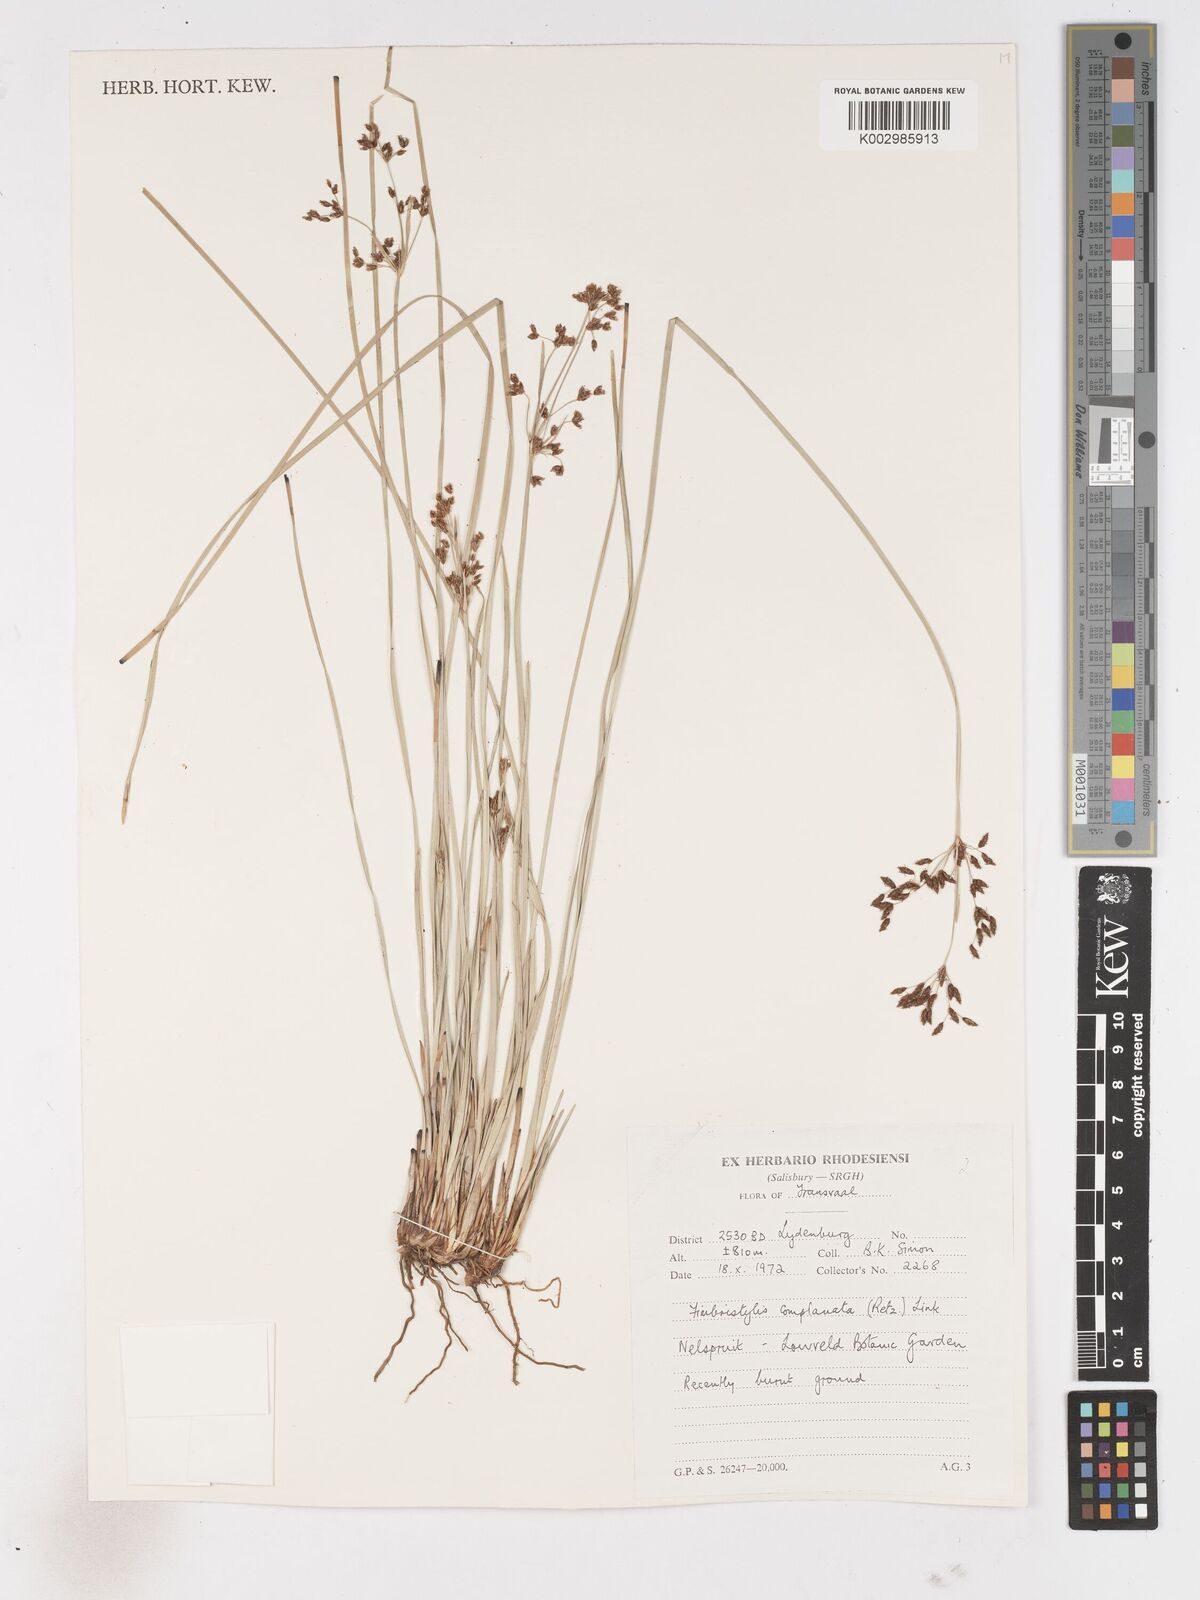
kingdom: Plantae
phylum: Tracheophyta
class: Liliopsida
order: Poales
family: Cyperaceae
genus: Fimbristylis
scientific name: Fimbristylis complanata
